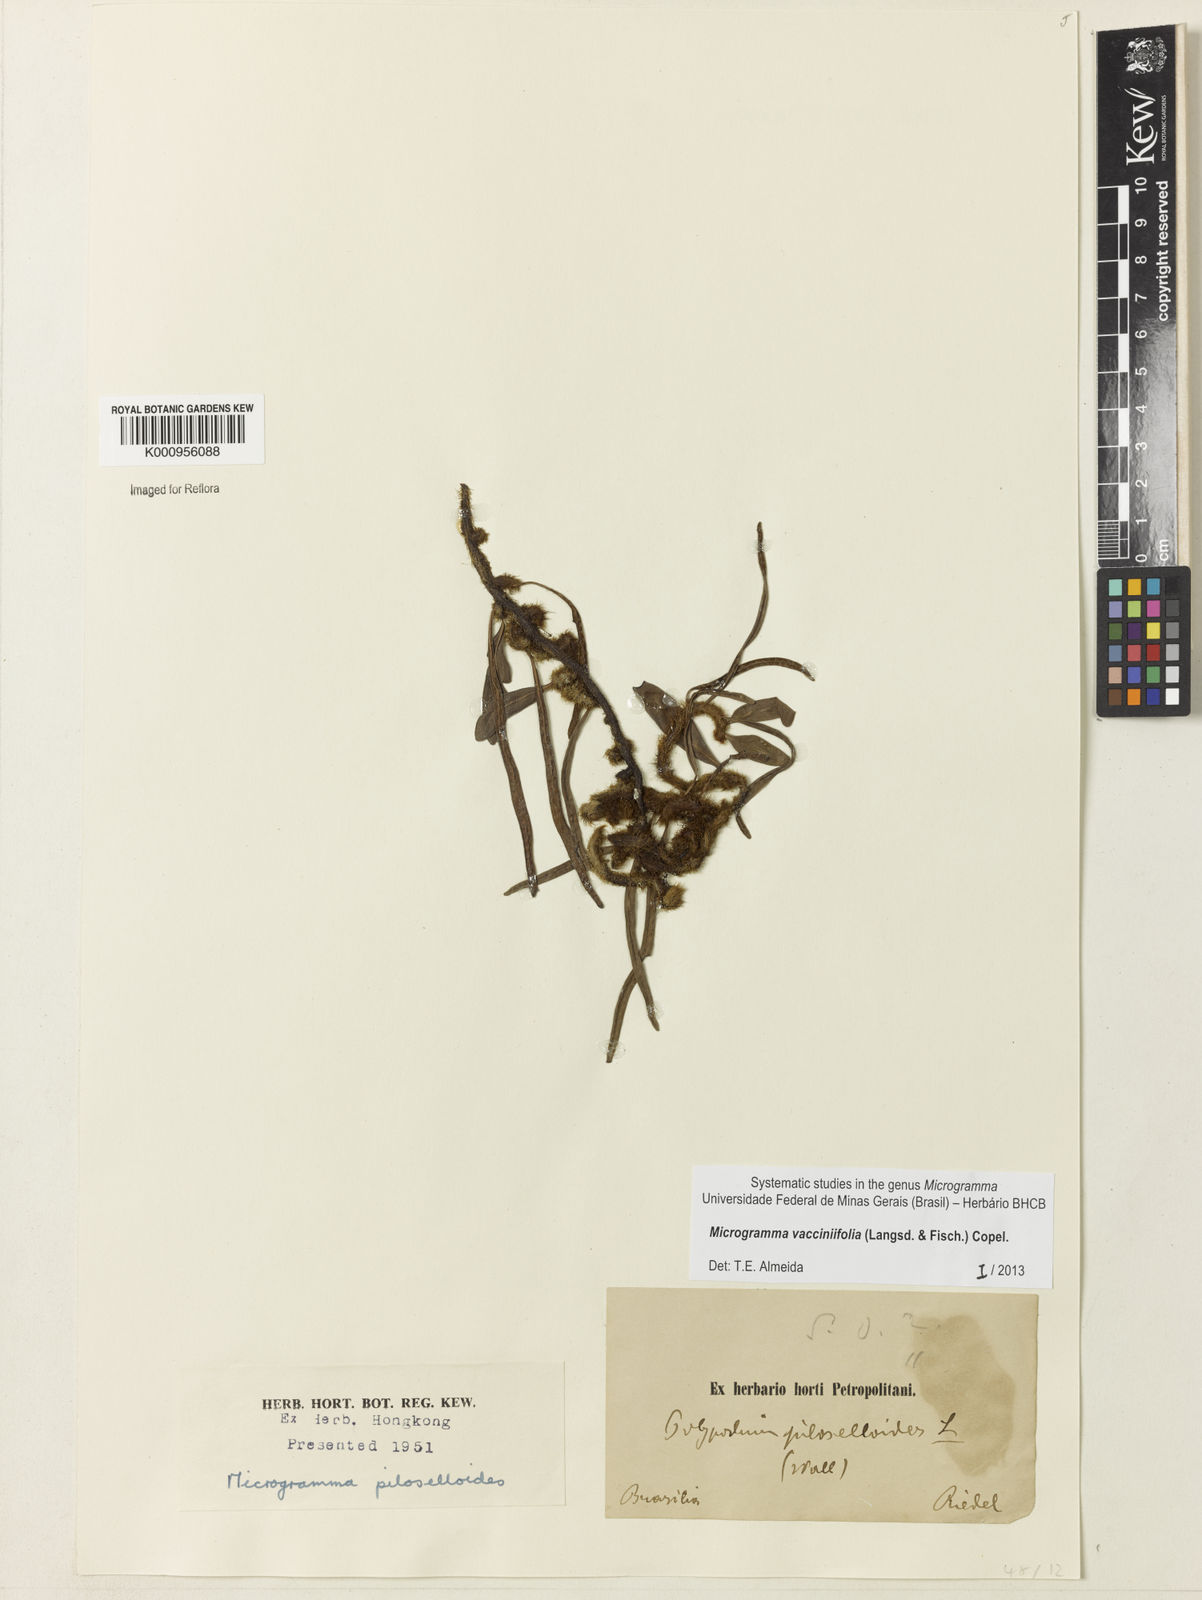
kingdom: Plantae
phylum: Tracheophyta
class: Polypodiopsida
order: Polypodiales
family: Polypodiaceae
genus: Phlebodium
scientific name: Phlebodium
